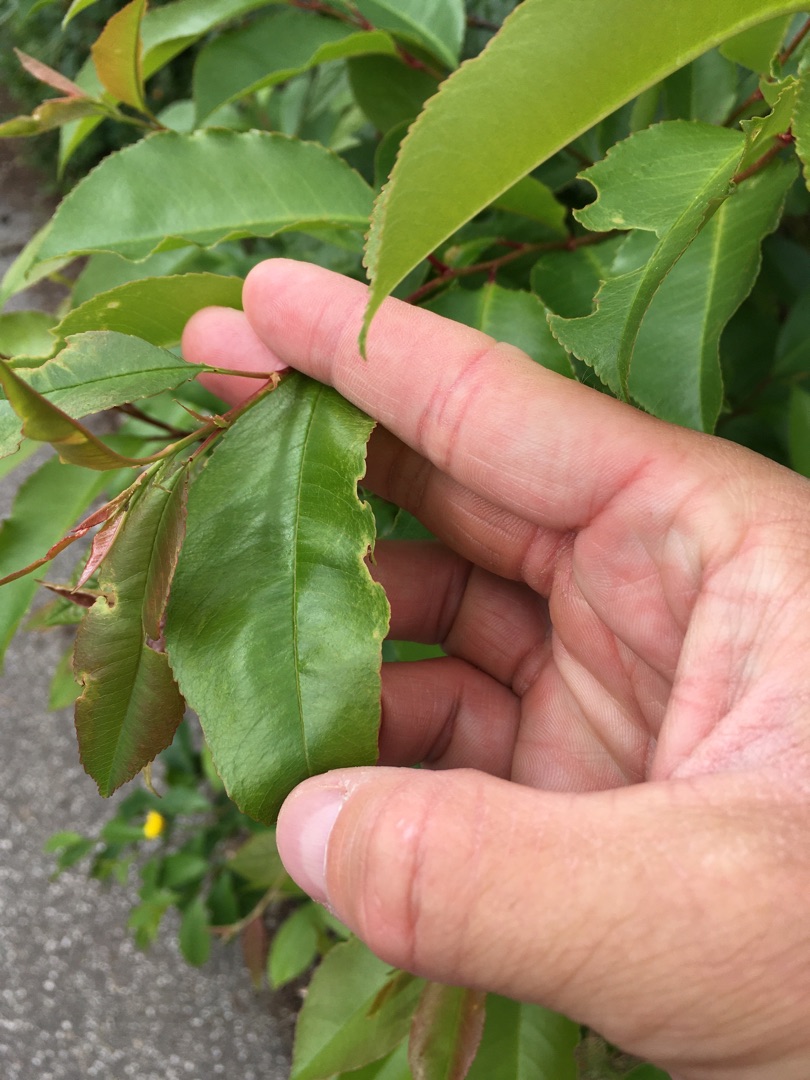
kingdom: Plantae
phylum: Tracheophyta
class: Magnoliopsida
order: Rosales
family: Rosaceae
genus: Prunus
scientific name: Prunus serotina
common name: Glansbladet hæg
